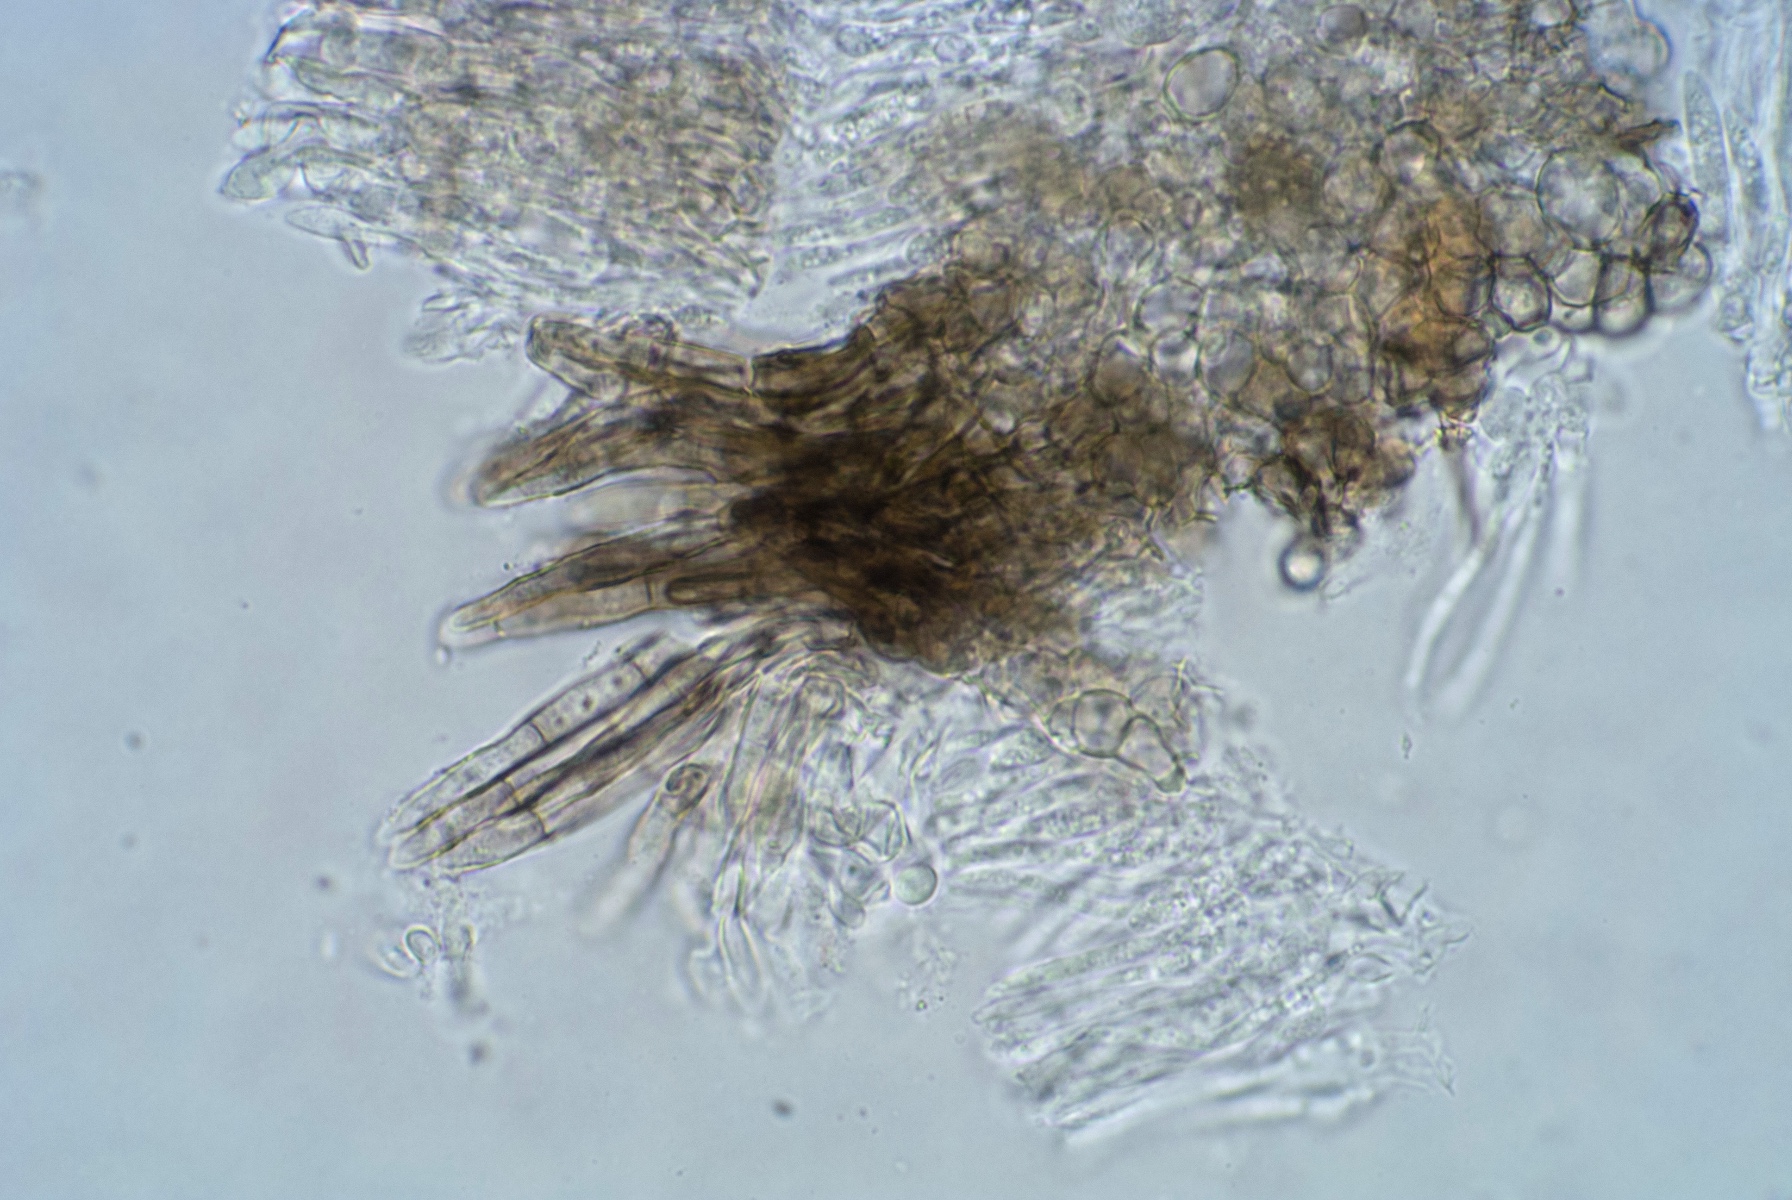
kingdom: Fungi
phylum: Ascomycota
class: Leotiomycetes
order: Helotiales
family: Ploettnerulaceae
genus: Pyrenopeziza
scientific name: Pyrenopeziza mercurialis
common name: bingelurt-kerneskive
